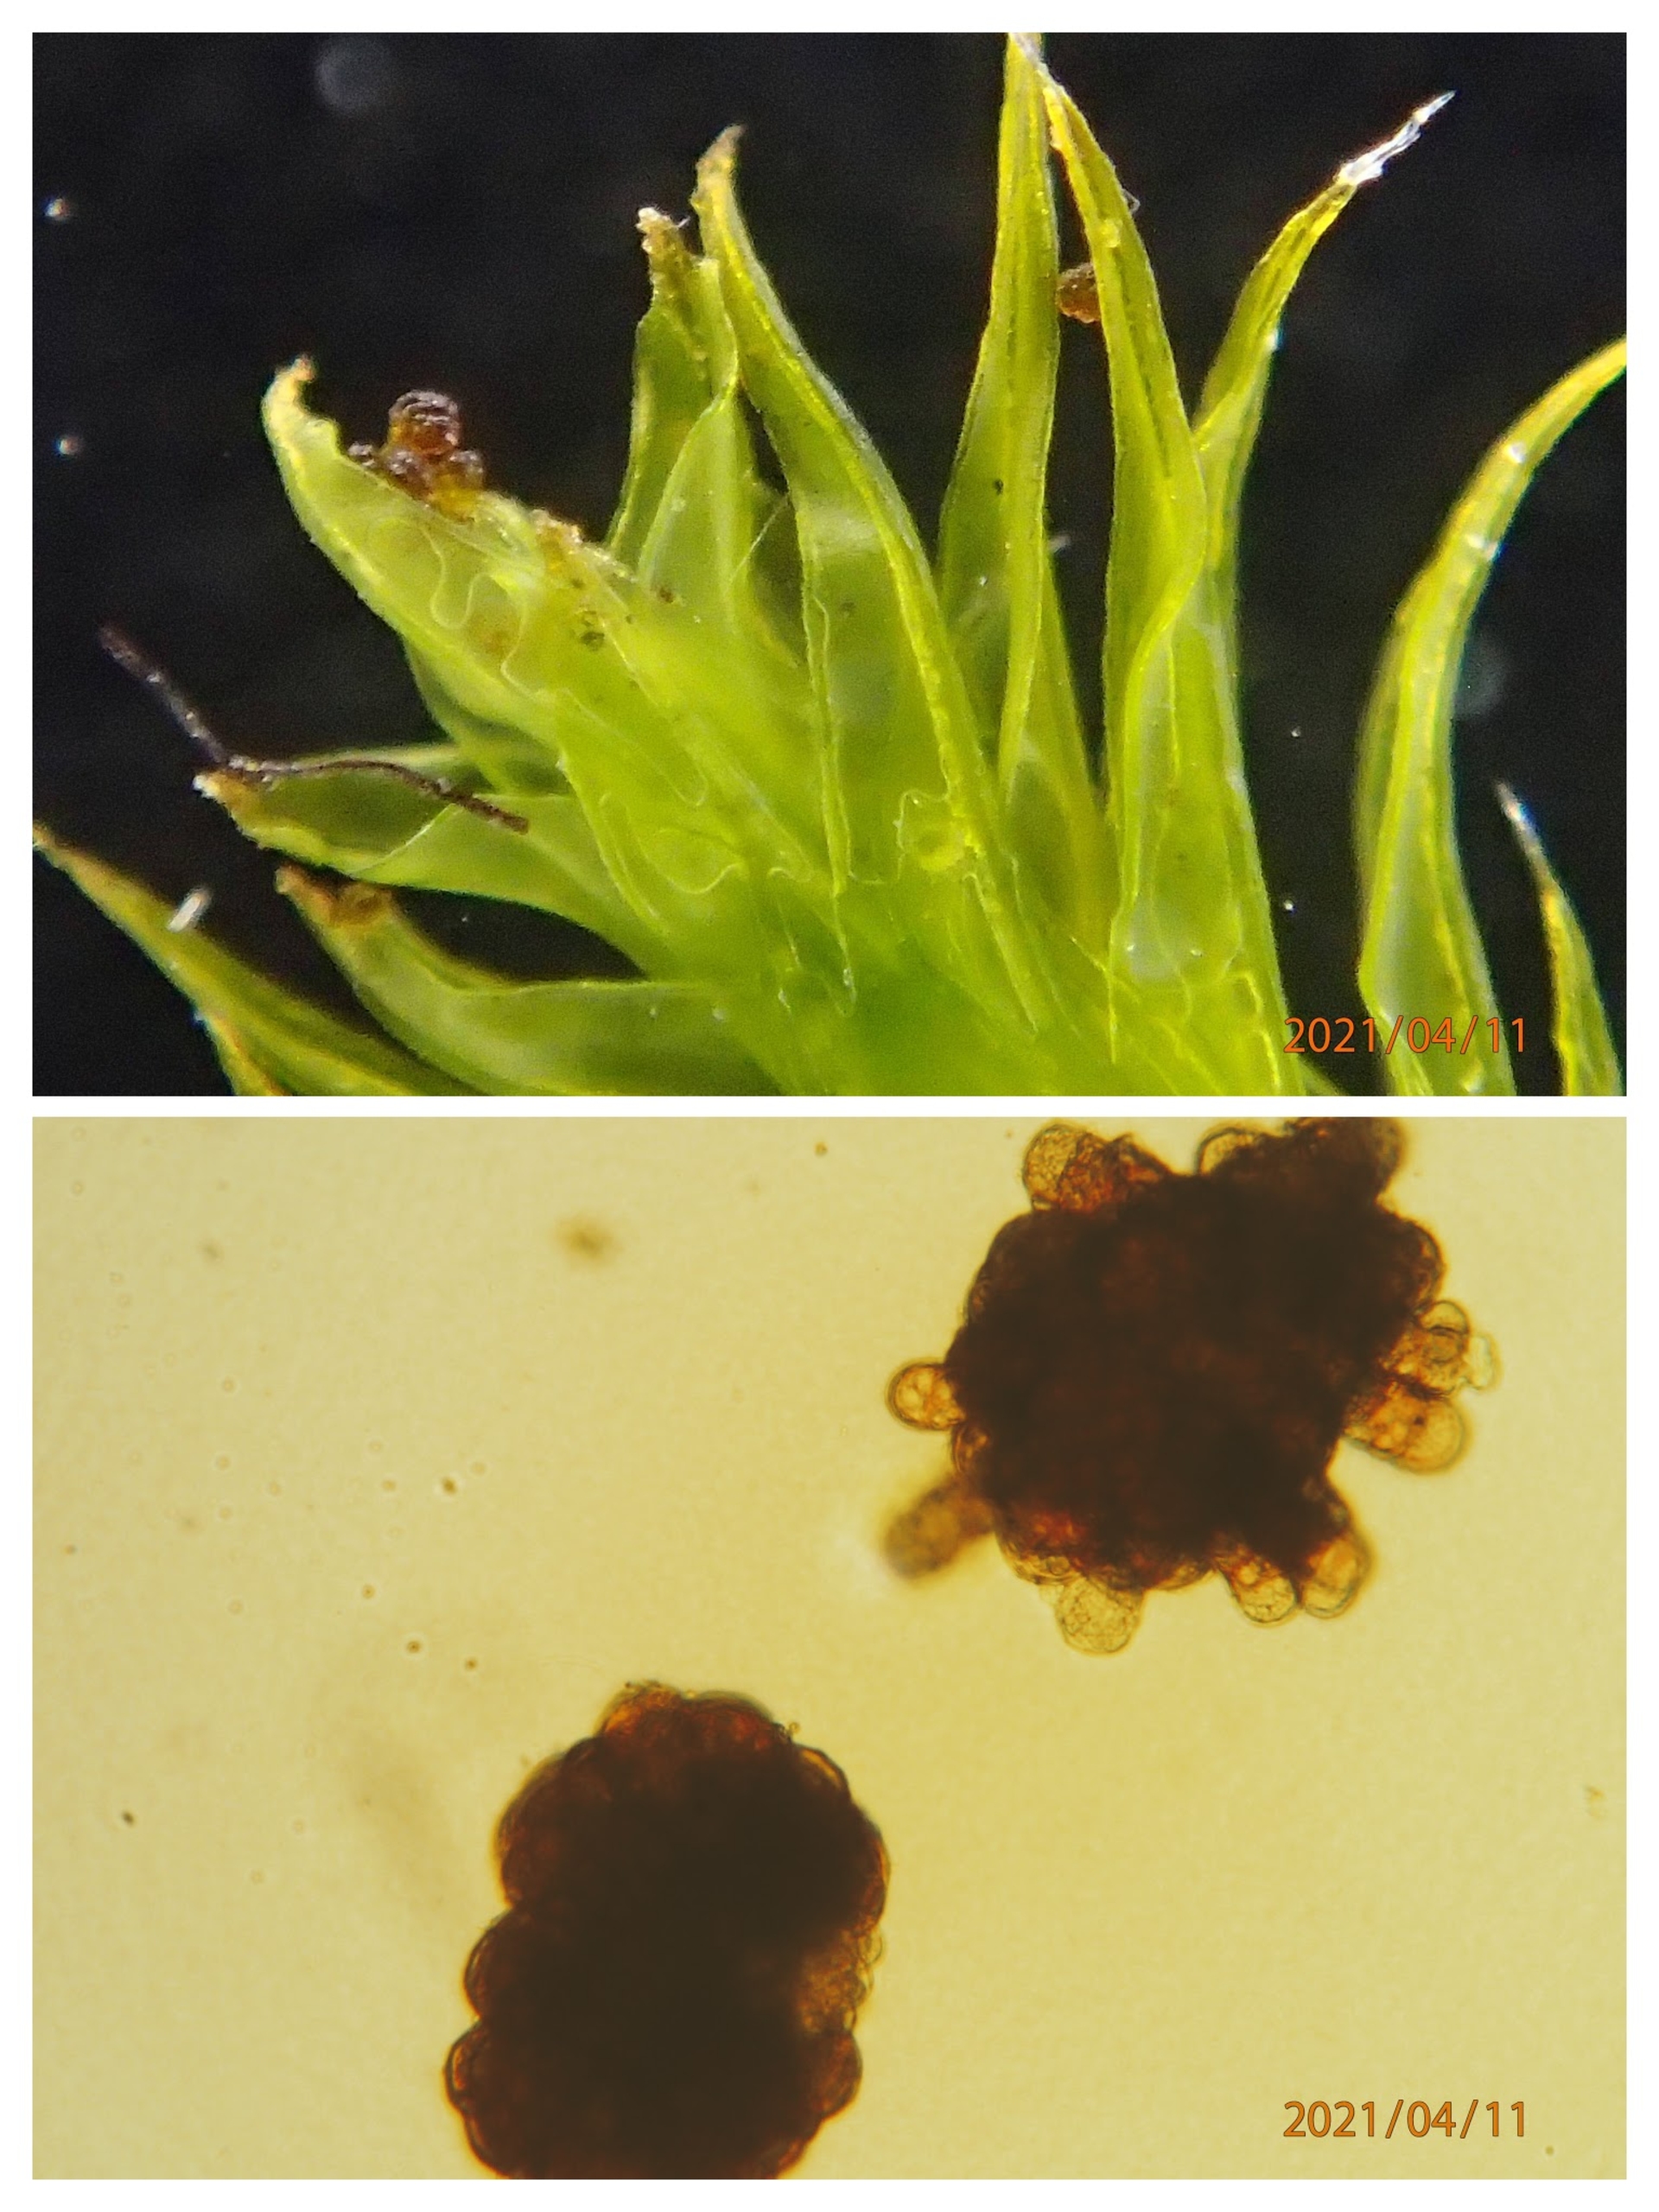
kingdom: Plantae
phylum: Bryophyta
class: Bryopsida
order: Grimmiales
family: Grimmiaceae
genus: Grimmia
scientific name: Grimmia hartmanii
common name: Hartmans gråmos
